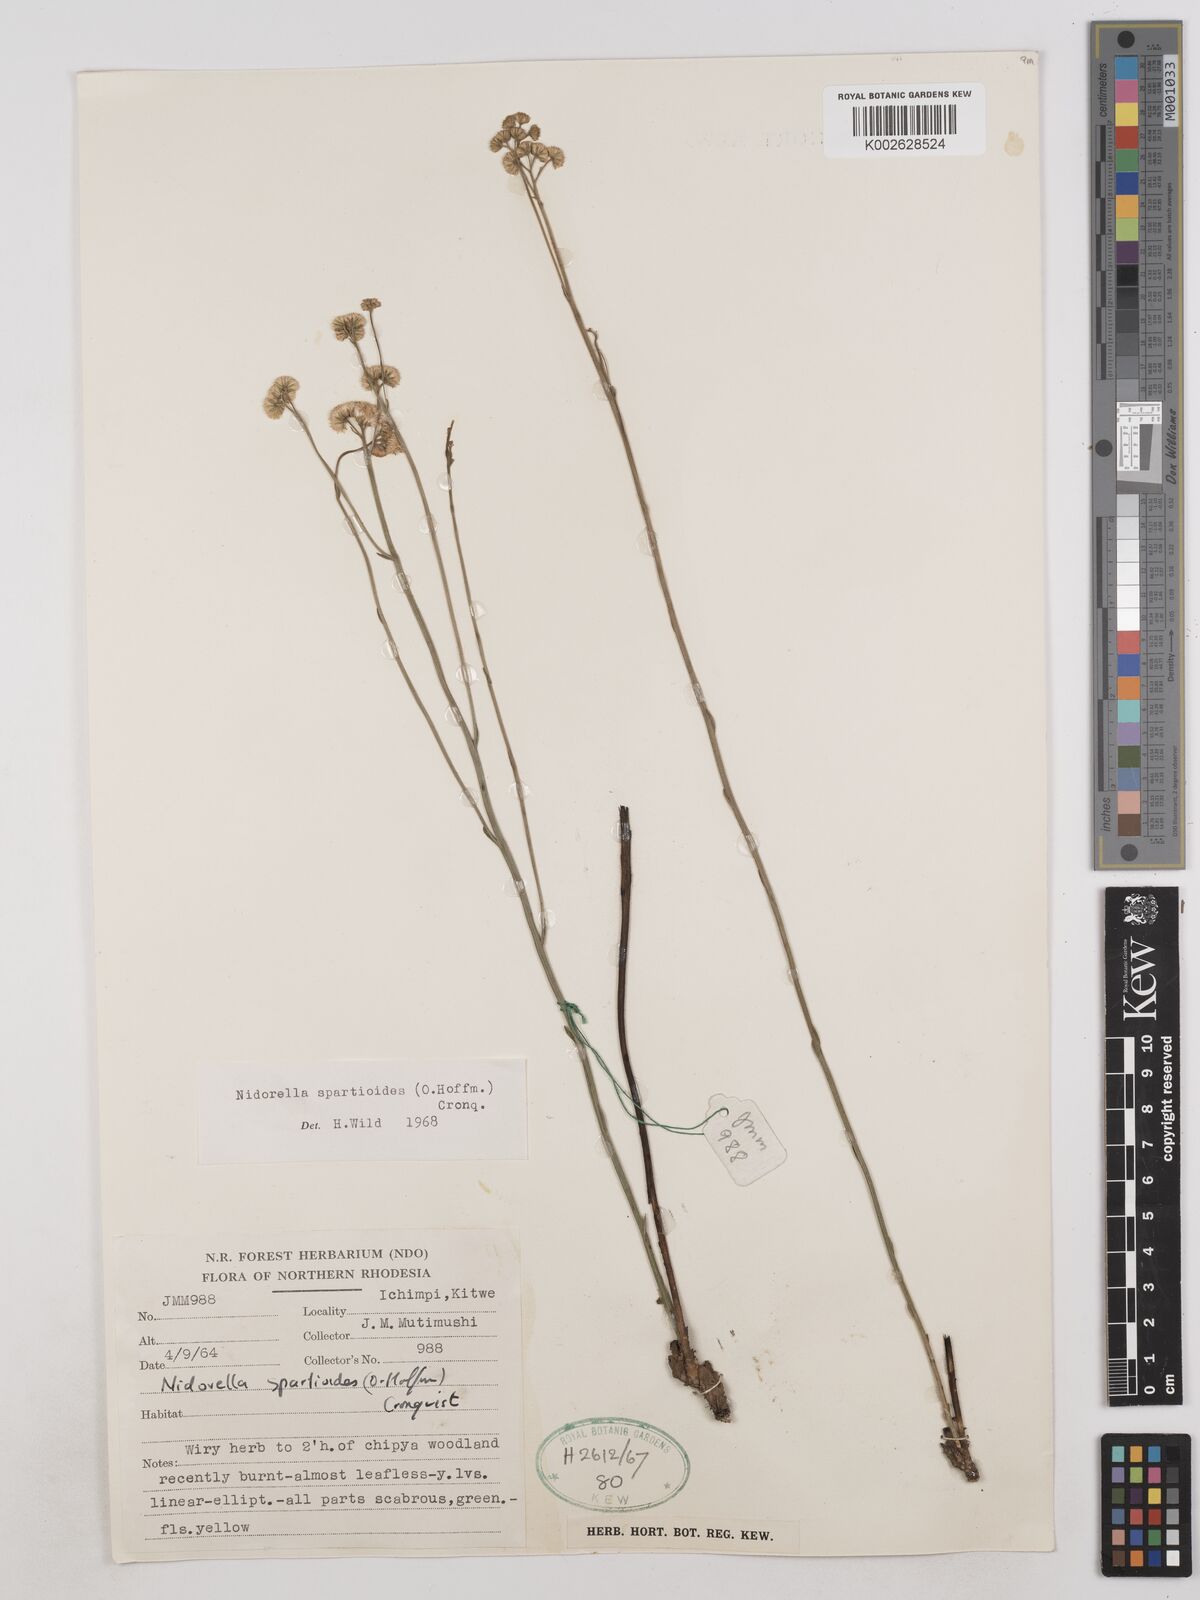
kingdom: Plantae
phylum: Tracheophyta
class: Magnoliopsida
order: Asterales
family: Asteraceae
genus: Nidorella
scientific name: Nidorella spartioides
